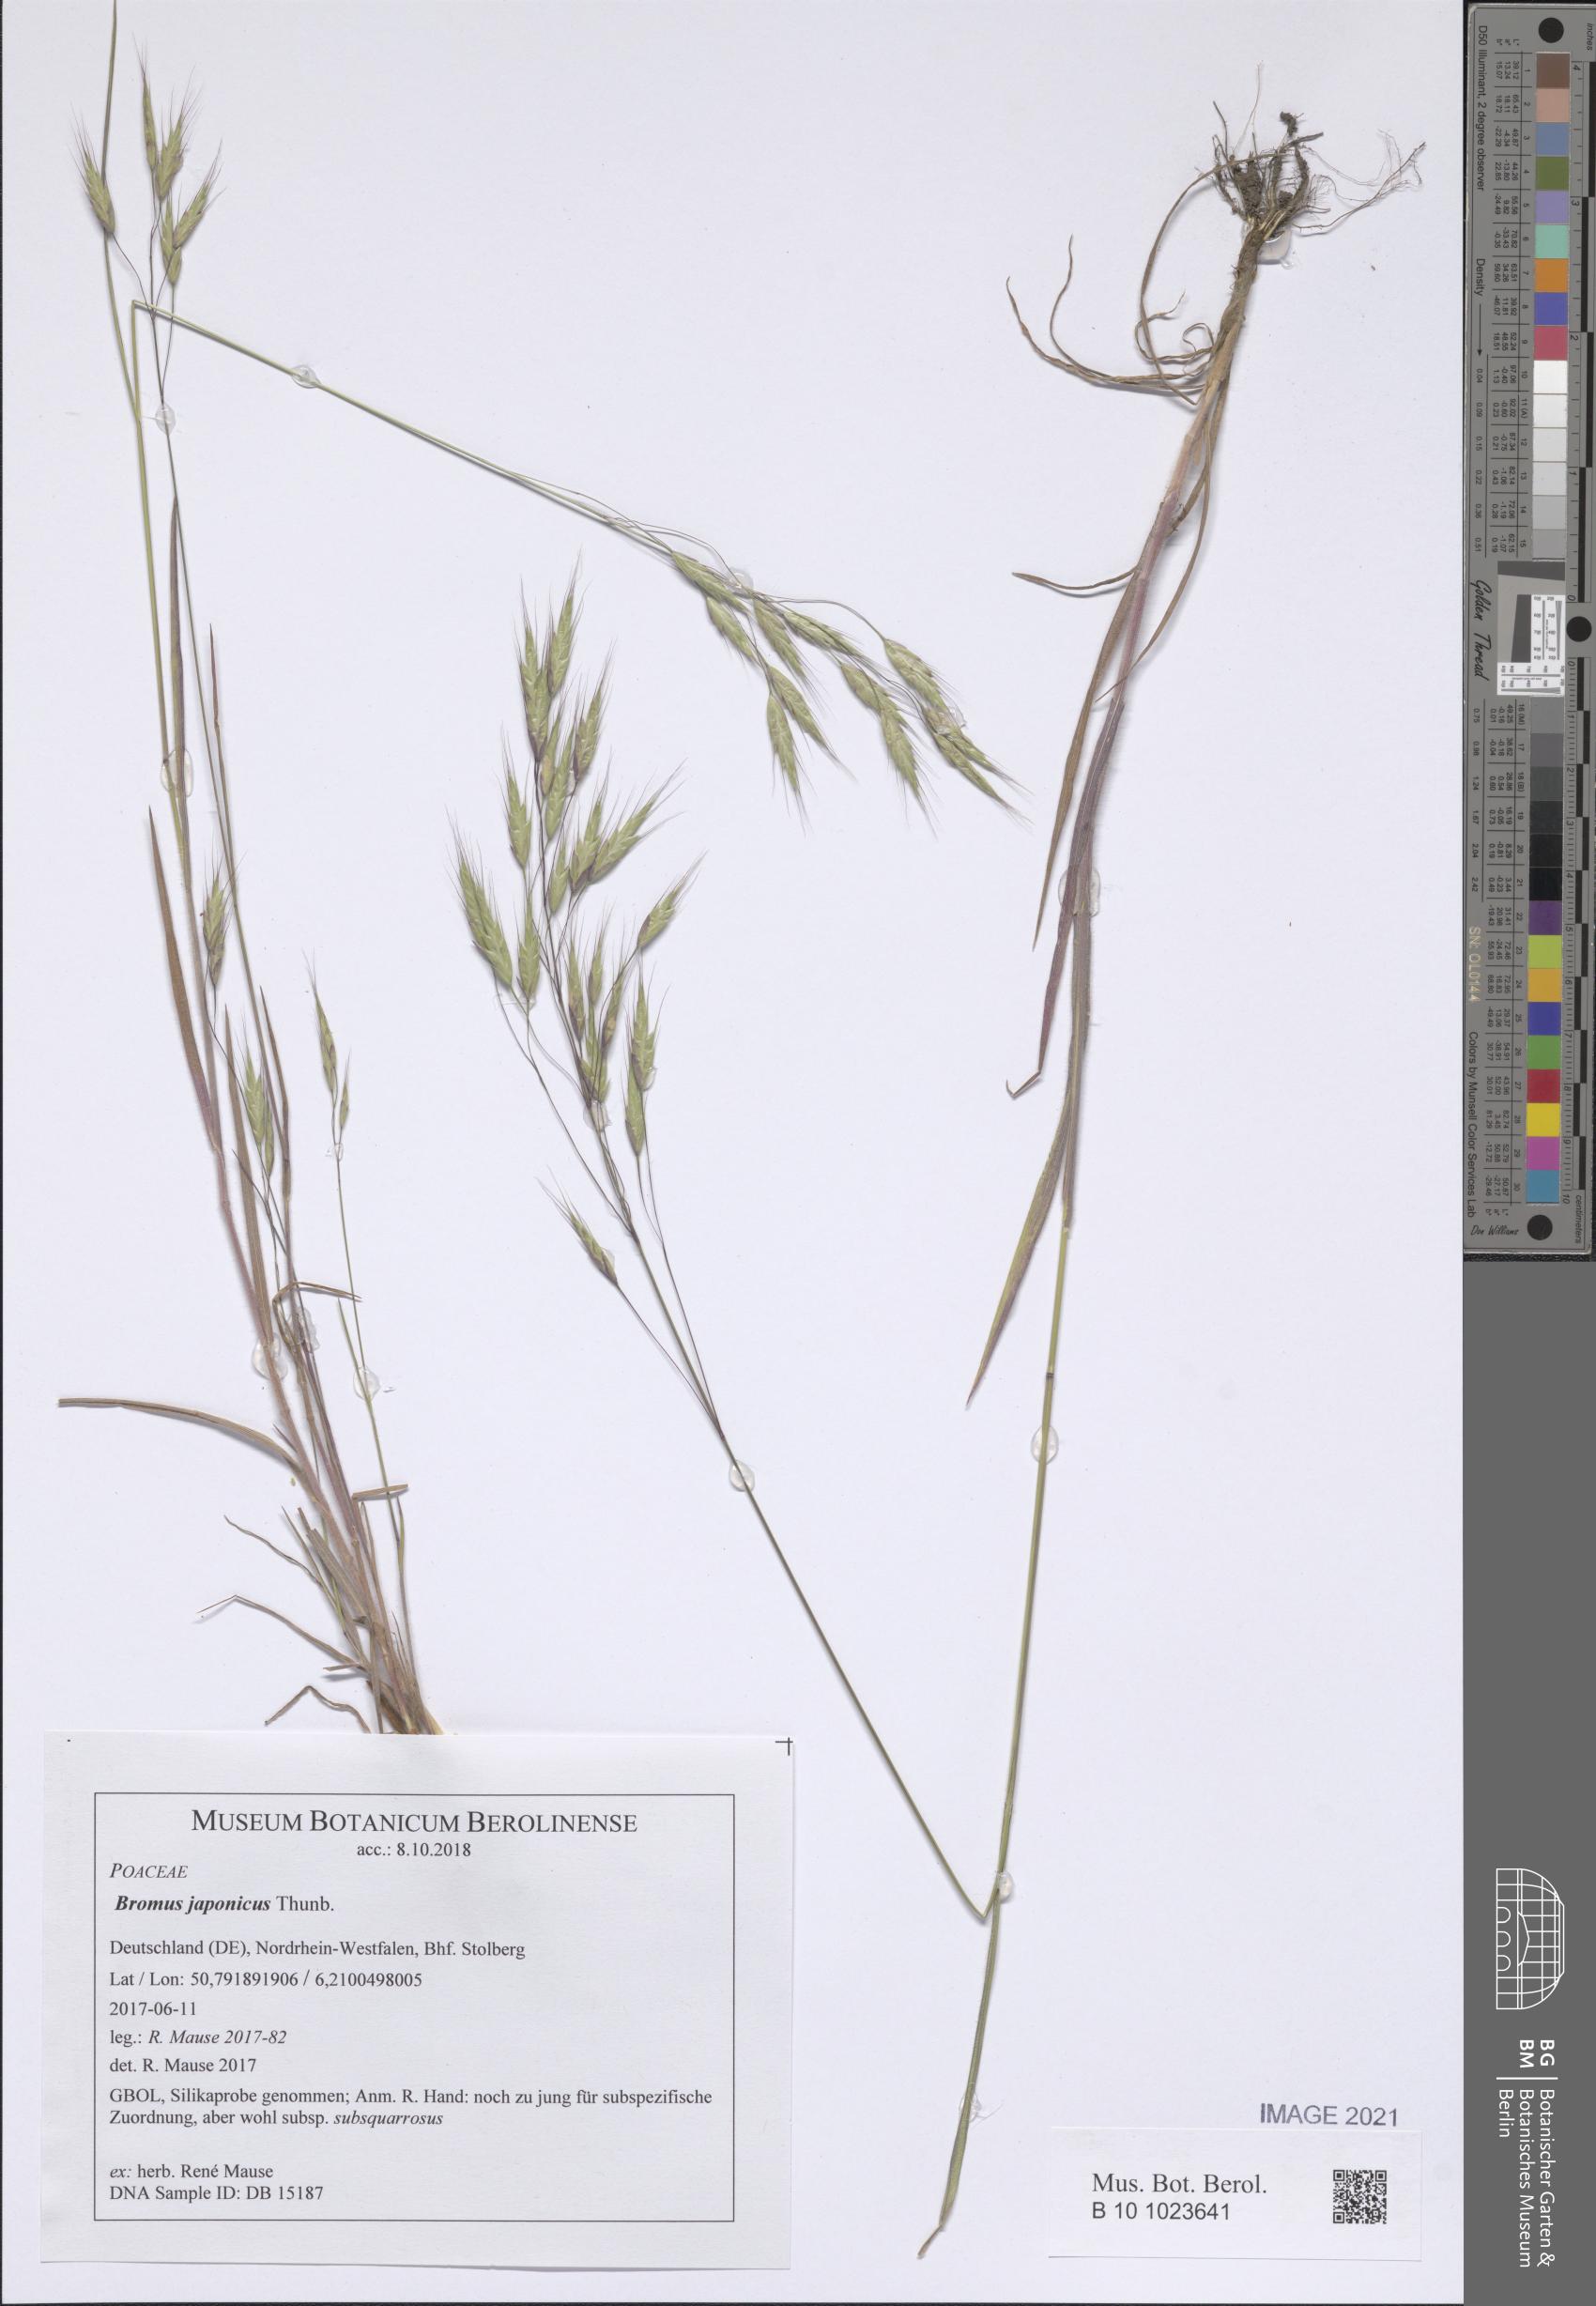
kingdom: Plantae
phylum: Tracheophyta
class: Liliopsida
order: Poales
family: Poaceae
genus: Bromus
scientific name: Bromus japonicus
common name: Japanese brome
